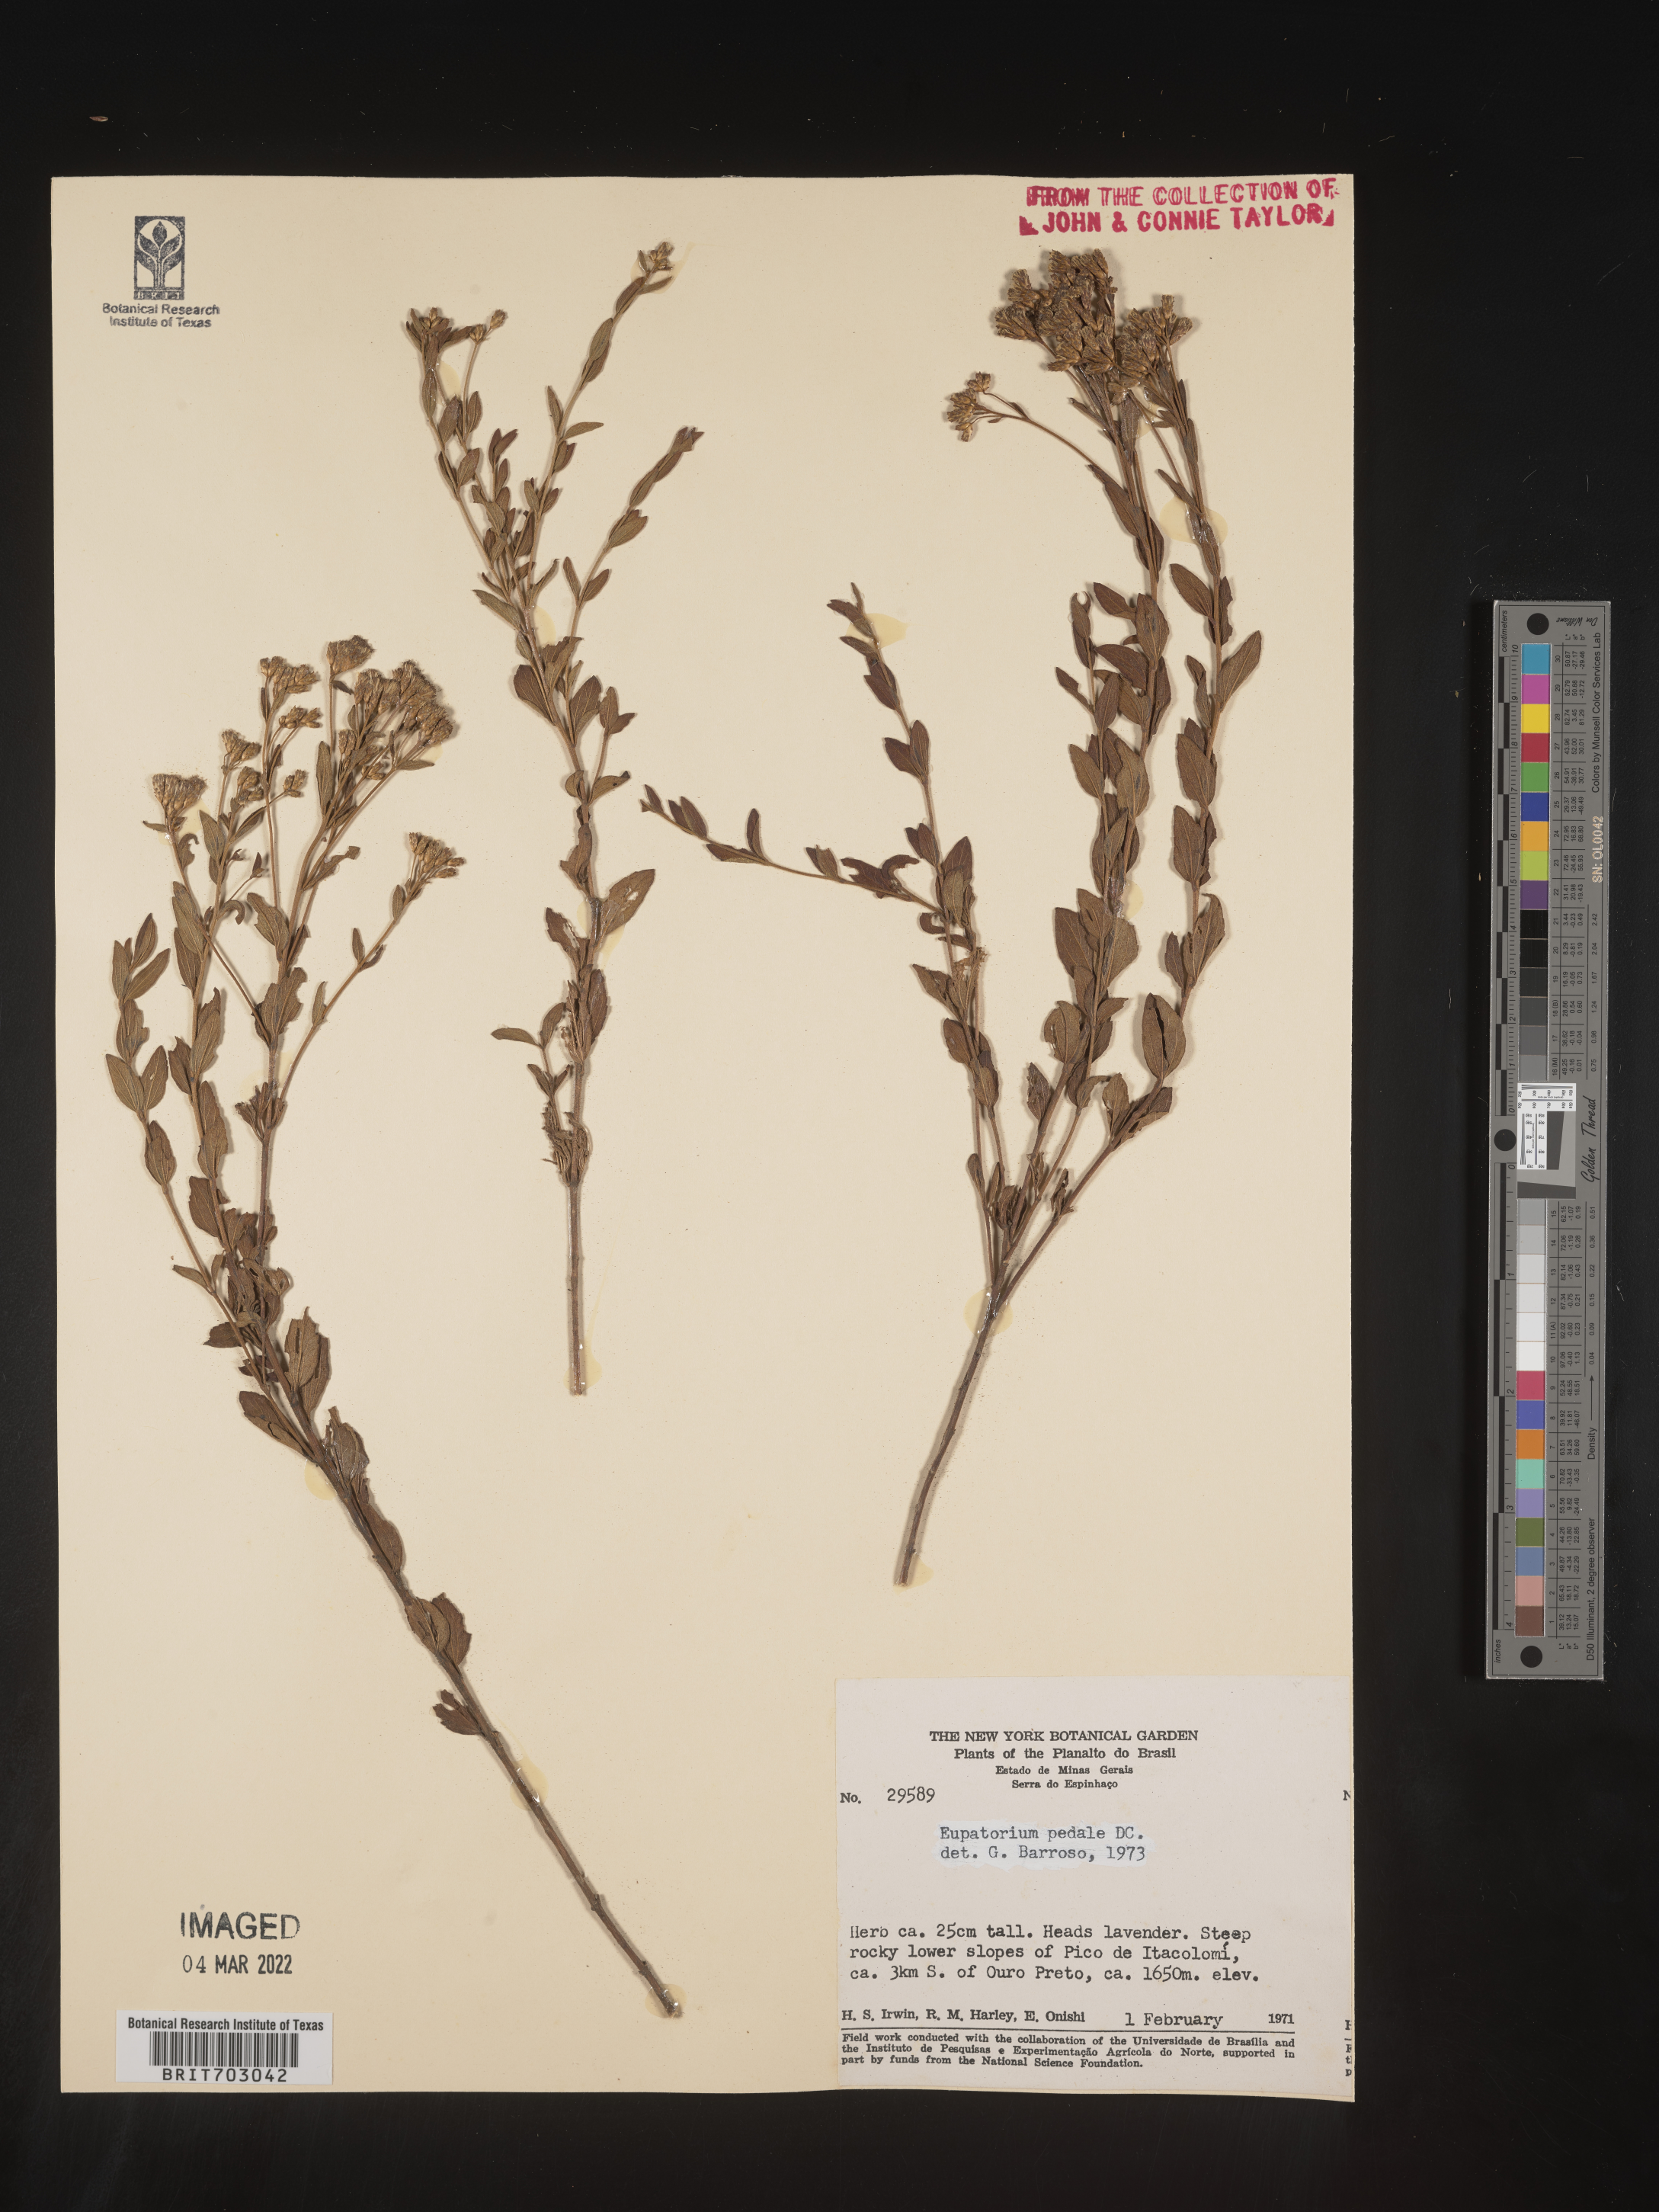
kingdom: Plantae
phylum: Tracheophyta
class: Magnoliopsida
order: Asterales
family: Asteraceae
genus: Eupatorium
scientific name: Eupatorium
